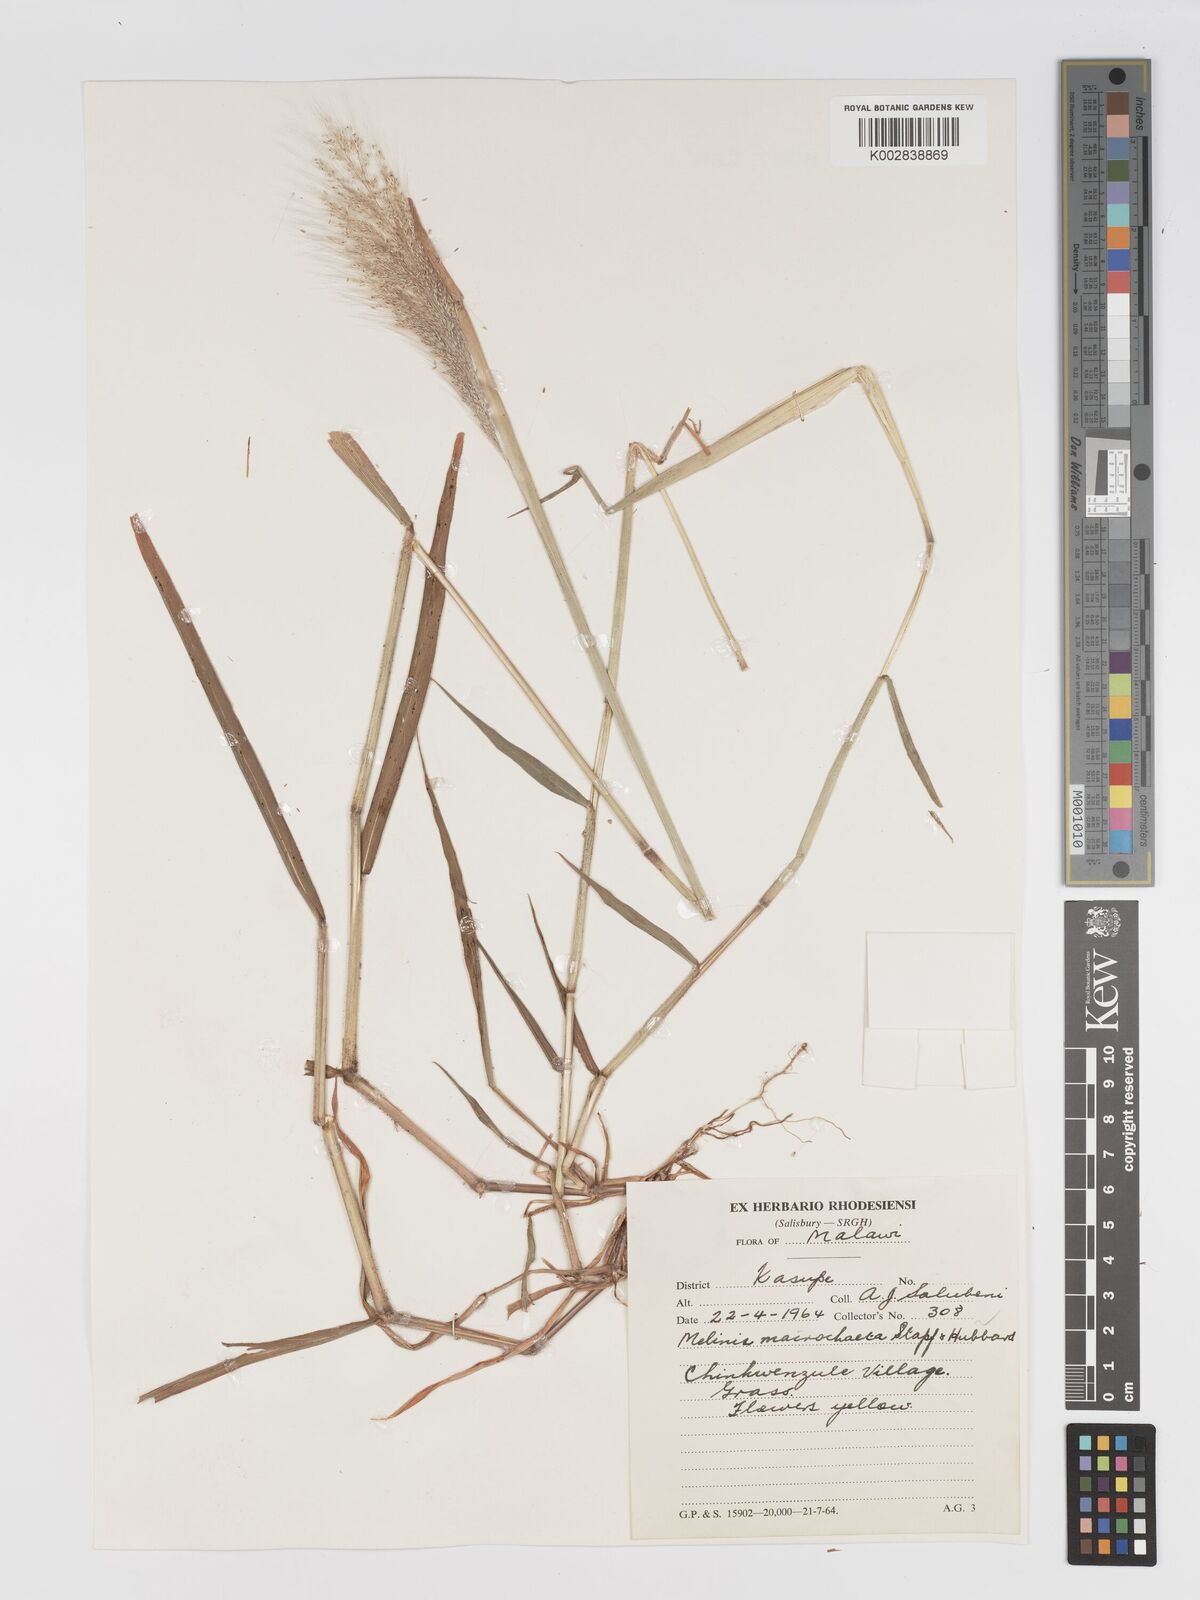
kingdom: Plantae
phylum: Tracheophyta
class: Liliopsida
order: Poales
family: Poaceae
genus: Melinis
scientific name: Melinis macrochaeta
